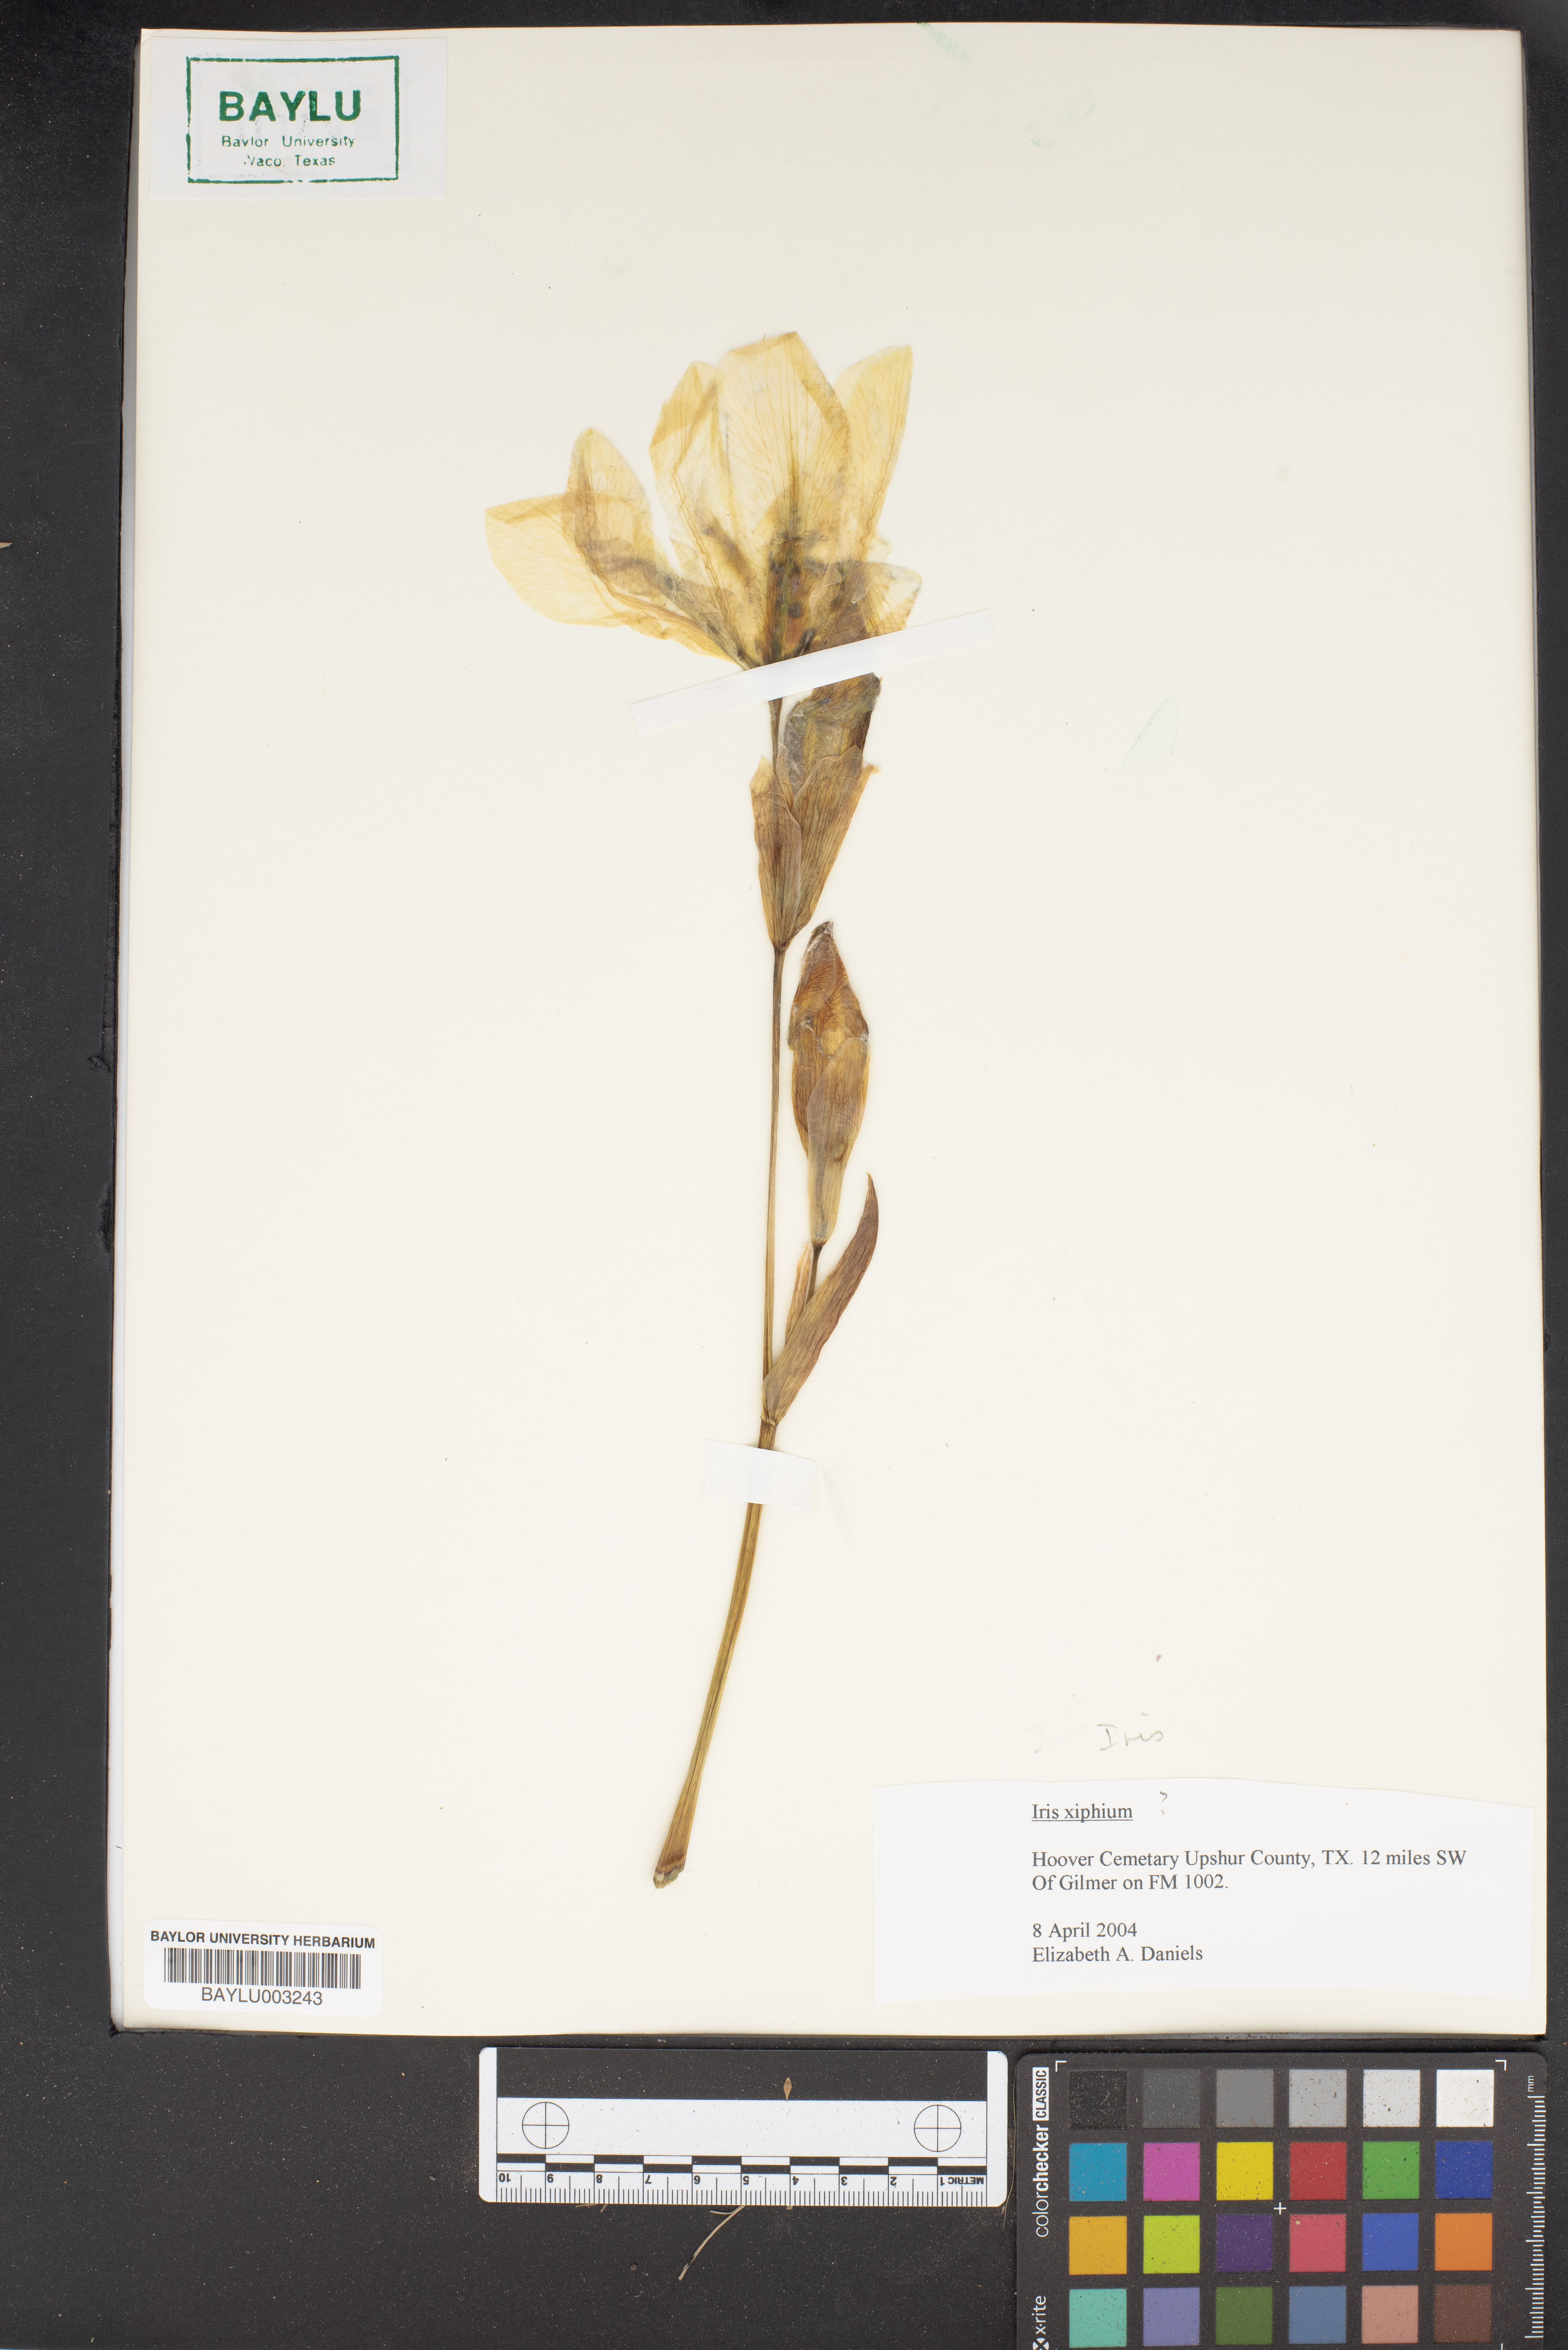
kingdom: Plantae
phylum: Tracheophyta
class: Liliopsida
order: Asparagales
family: Iridaceae
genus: Iris
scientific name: Iris xiphium
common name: Spanish iris
